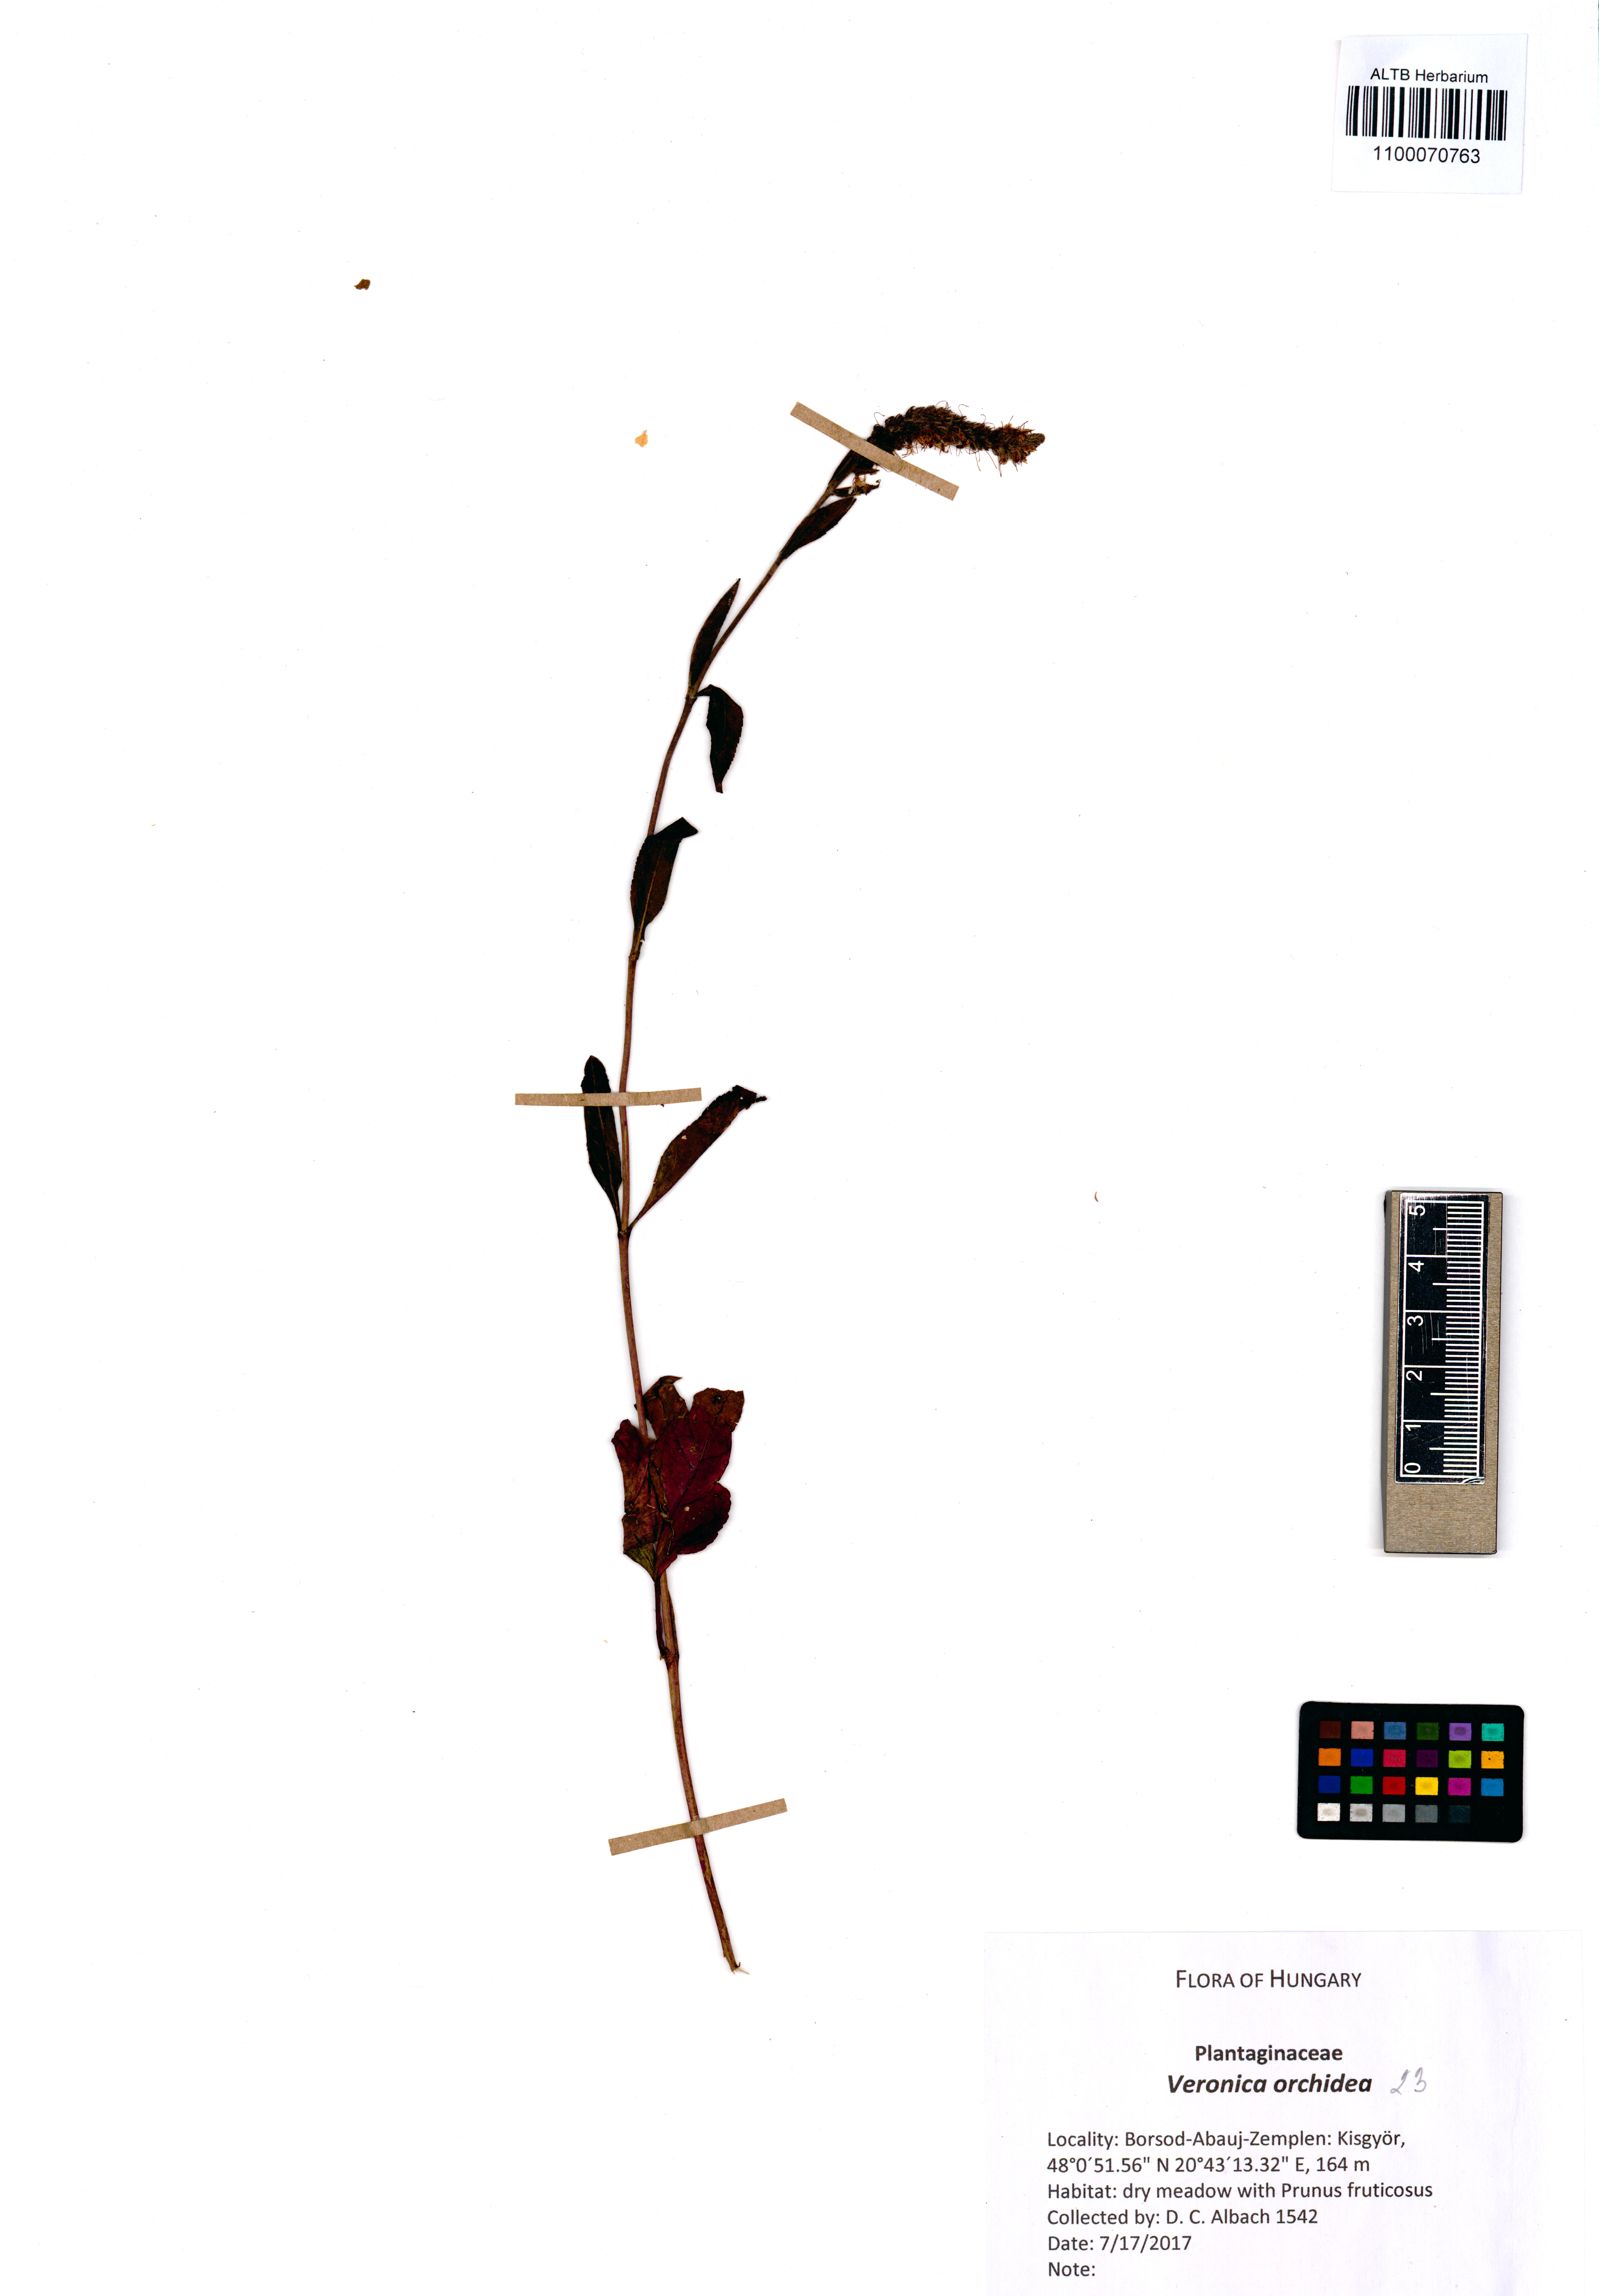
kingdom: Plantae
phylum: Tracheophyta
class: Magnoliopsida
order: Lamiales
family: Plantaginaceae
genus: Veronica
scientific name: Veronica orchidea
